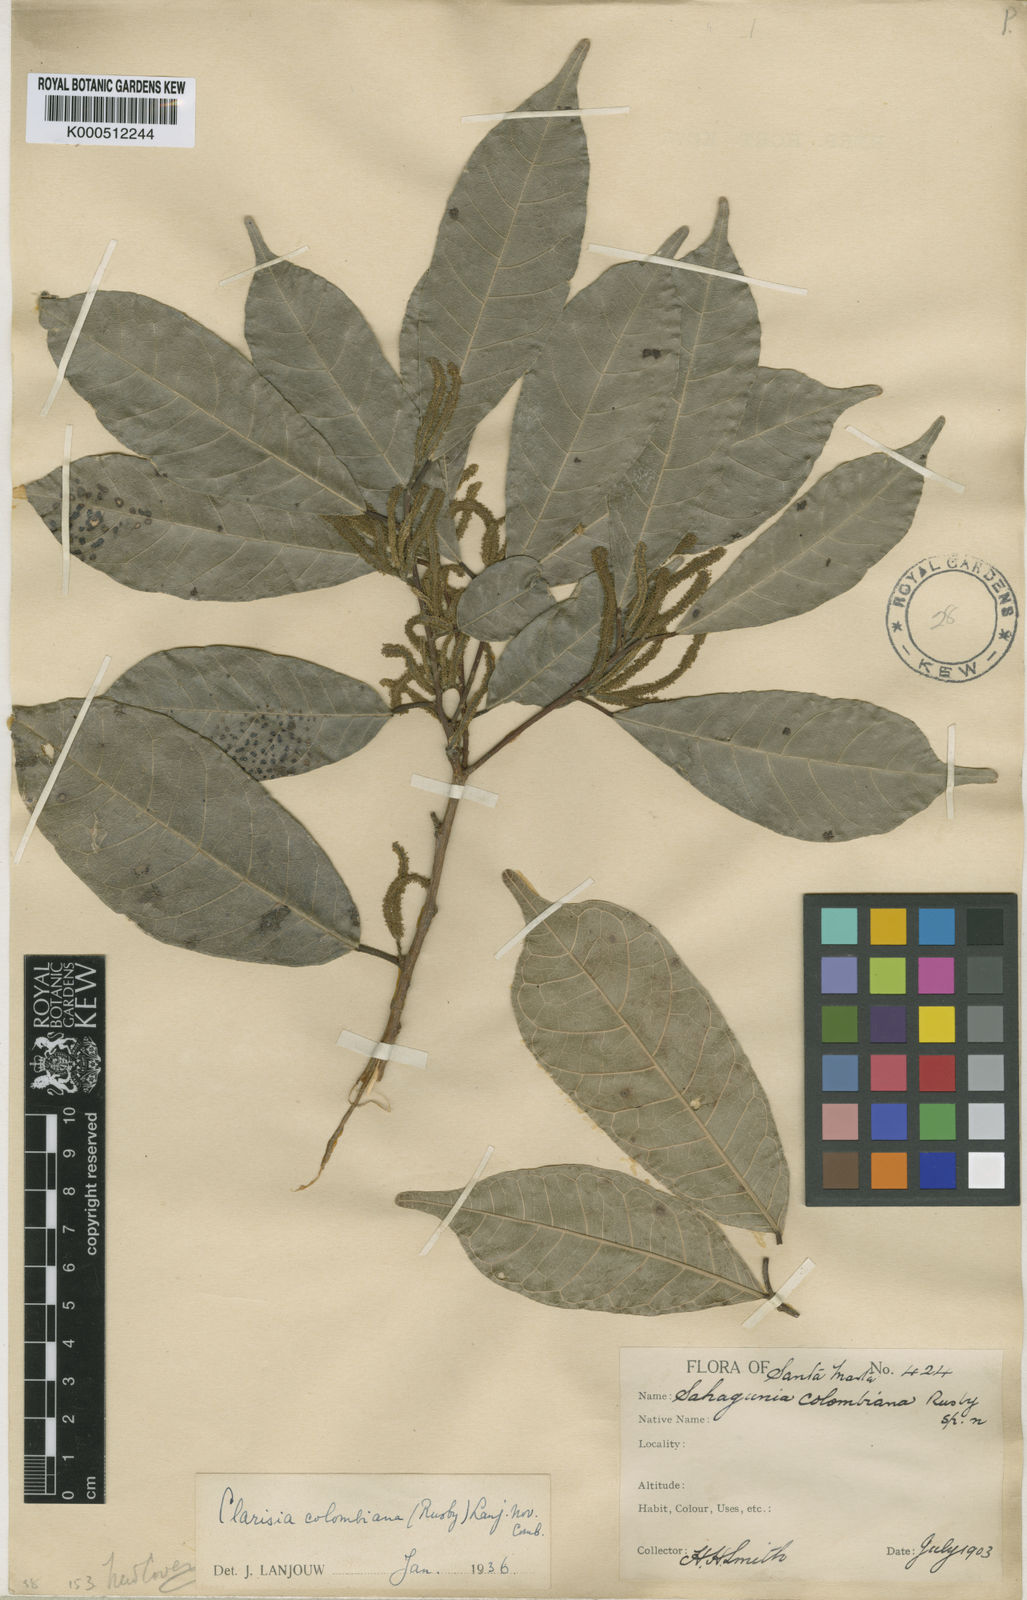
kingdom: Plantae
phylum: Tracheophyta
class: Magnoliopsida
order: Rosales
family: Moraceae
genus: Clarisia
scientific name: Clarisia biflora
